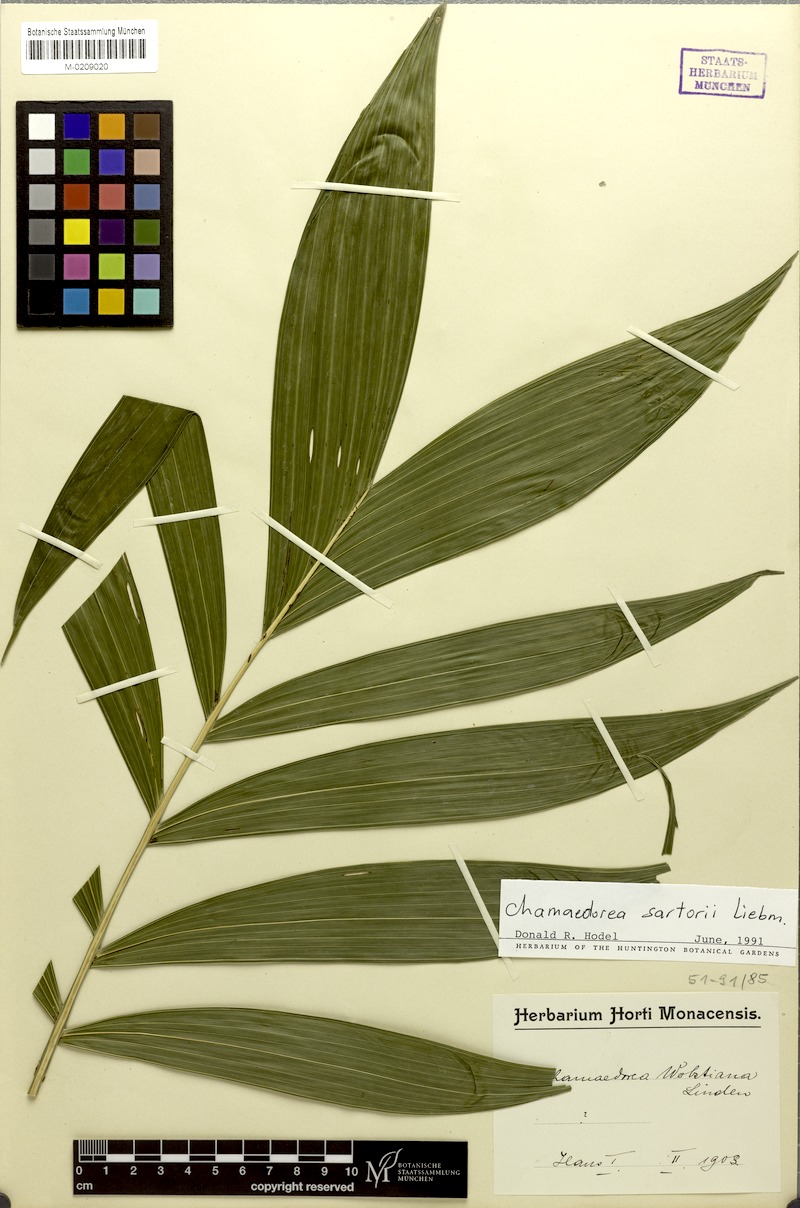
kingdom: Plantae
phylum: Tracheophyta
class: Liliopsida
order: Arecales
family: Arecaceae
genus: Chamaedorea
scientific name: Chamaedorea sartorii
